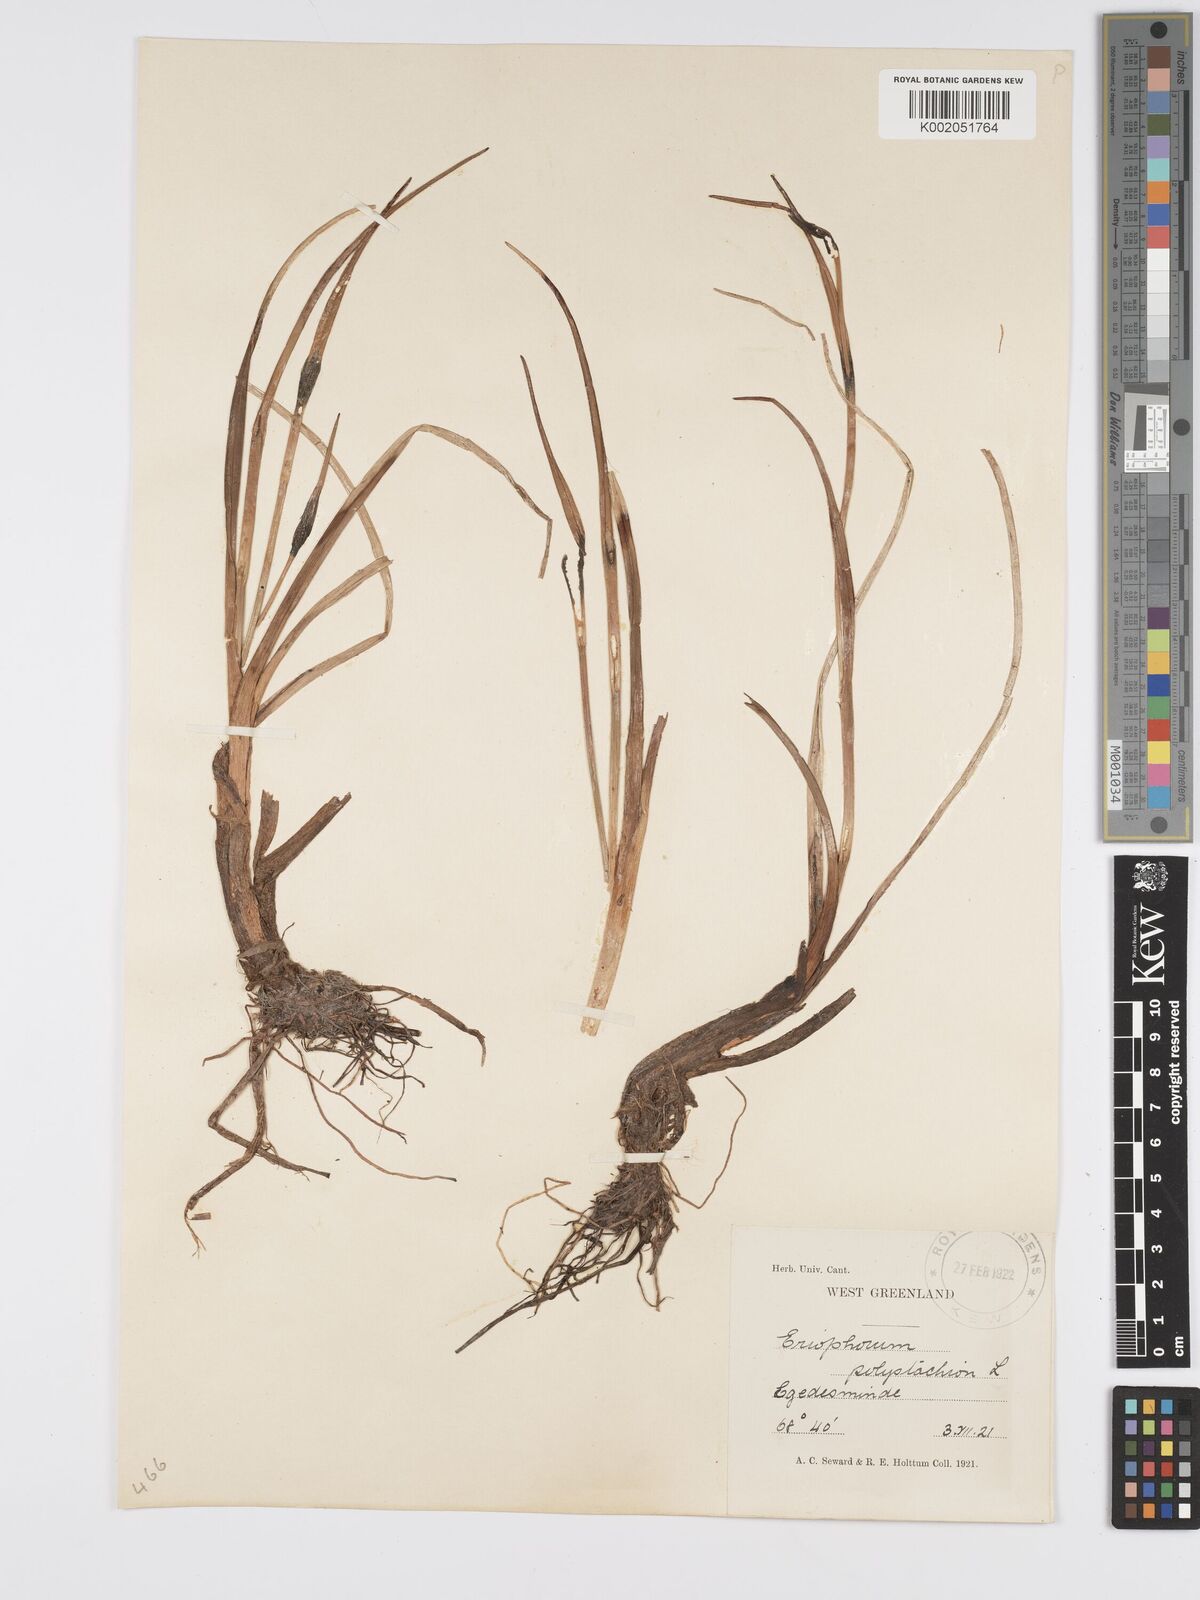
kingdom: Plantae
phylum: Tracheophyta
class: Liliopsida
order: Poales
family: Cyperaceae
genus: Eriophorum
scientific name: Eriophorum angustifolium
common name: Common cottongrass
